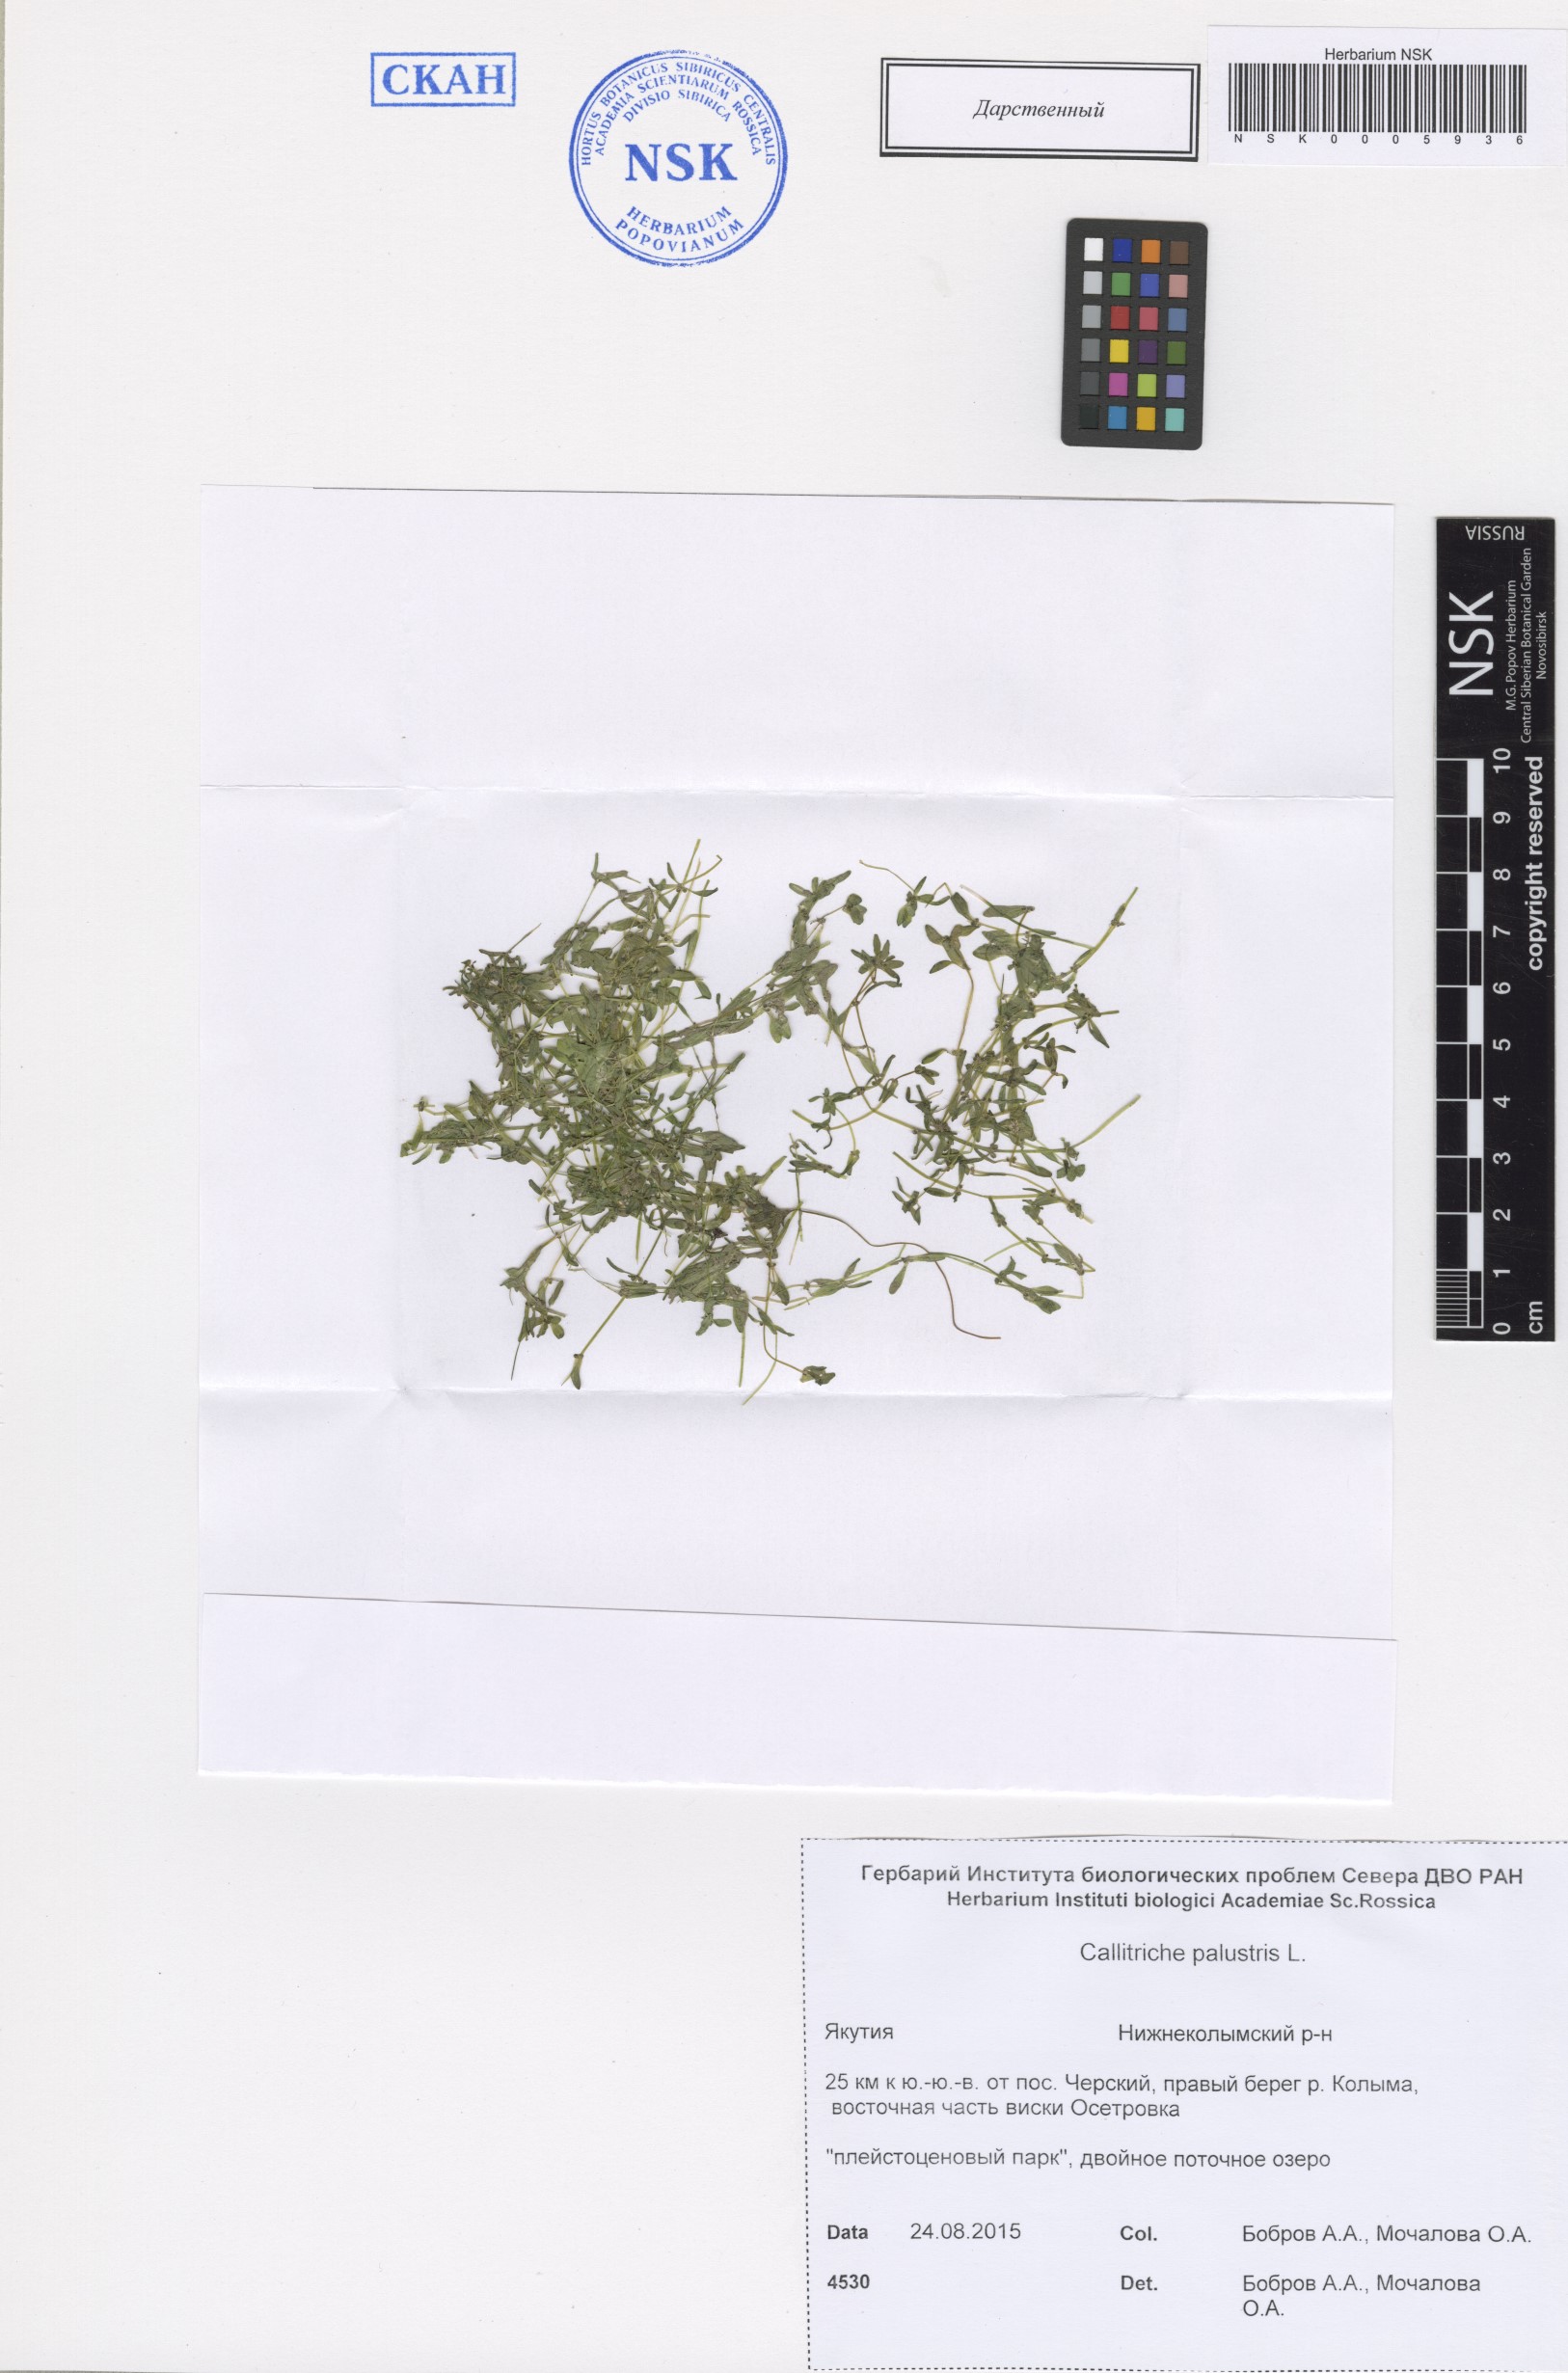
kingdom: Plantae
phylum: Tracheophyta
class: Magnoliopsida
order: Lamiales
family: Plantaginaceae
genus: Callitriche
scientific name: Callitriche palustris
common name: Spring water-starwort
